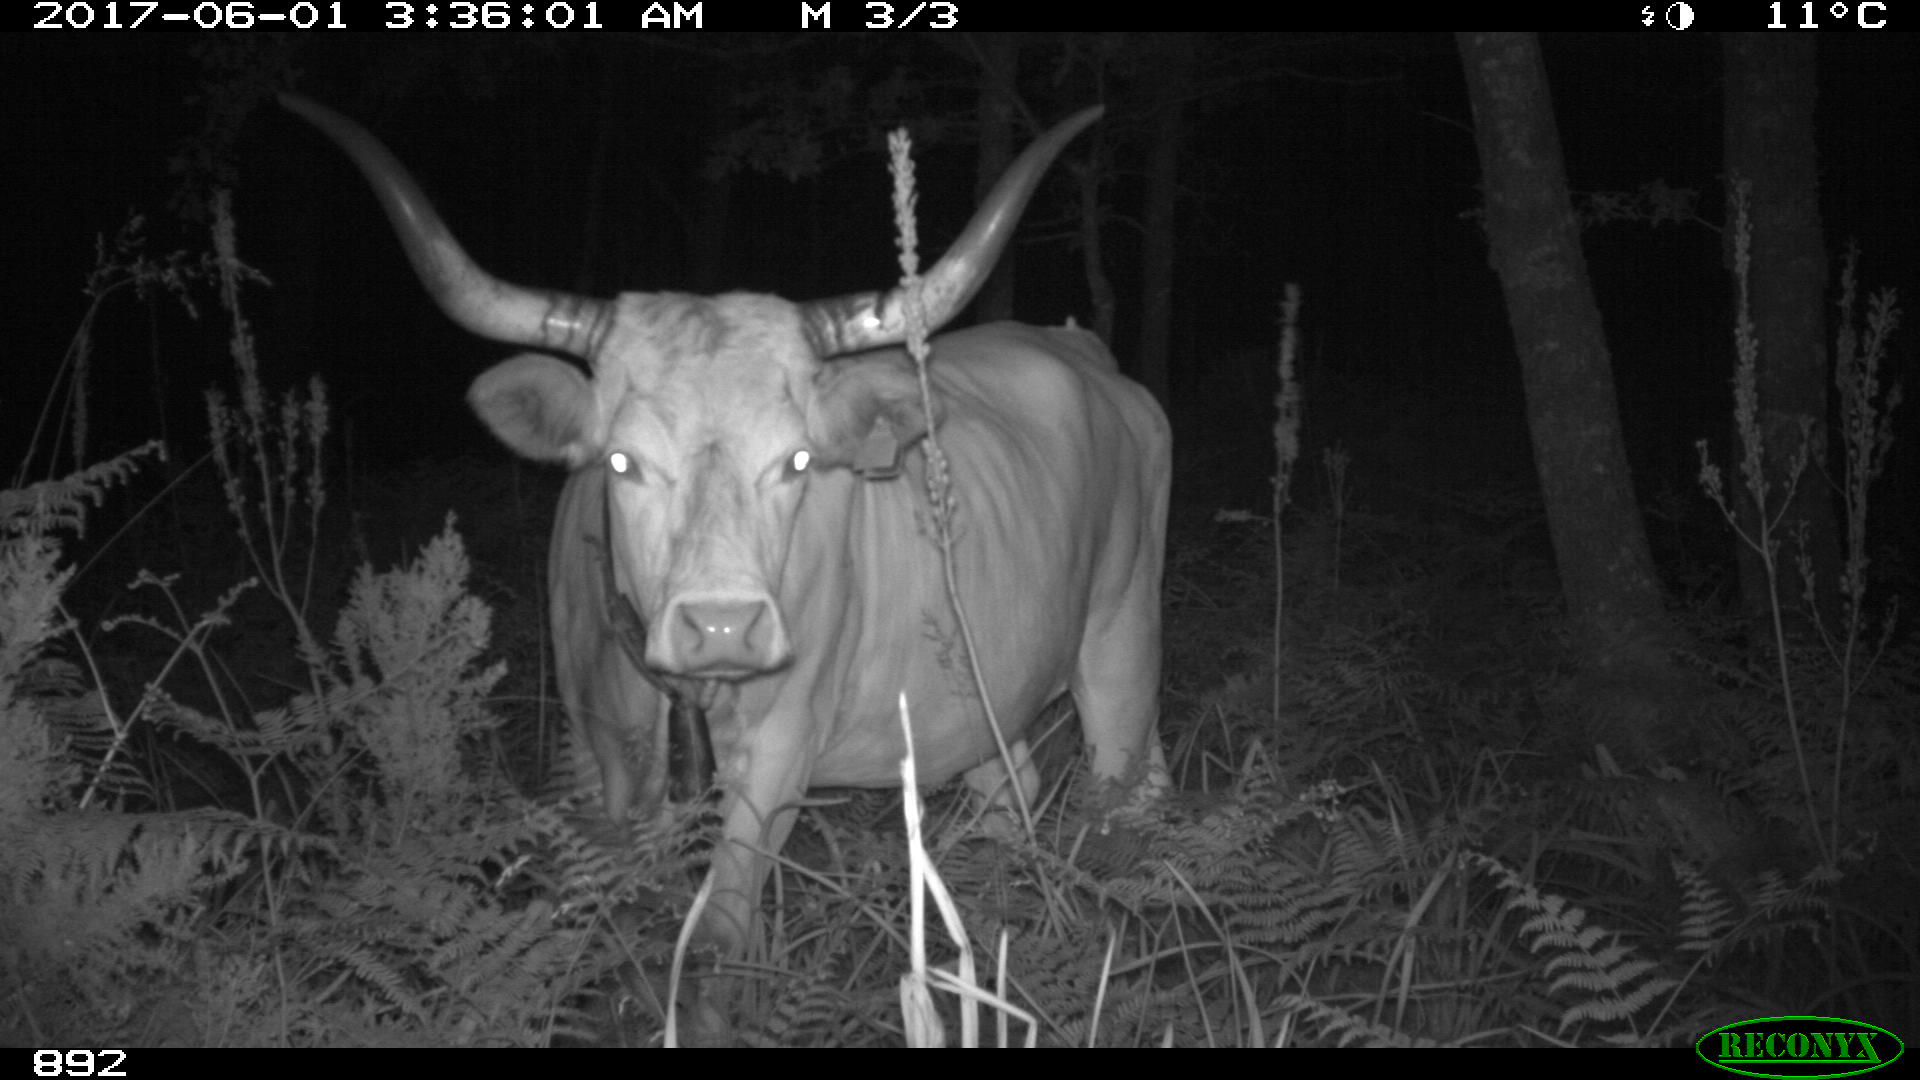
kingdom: Animalia
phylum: Chordata
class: Mammalia
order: Artiodactyla
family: Bovidae
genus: Bos
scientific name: Bos taurus
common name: Domesticated cattle
